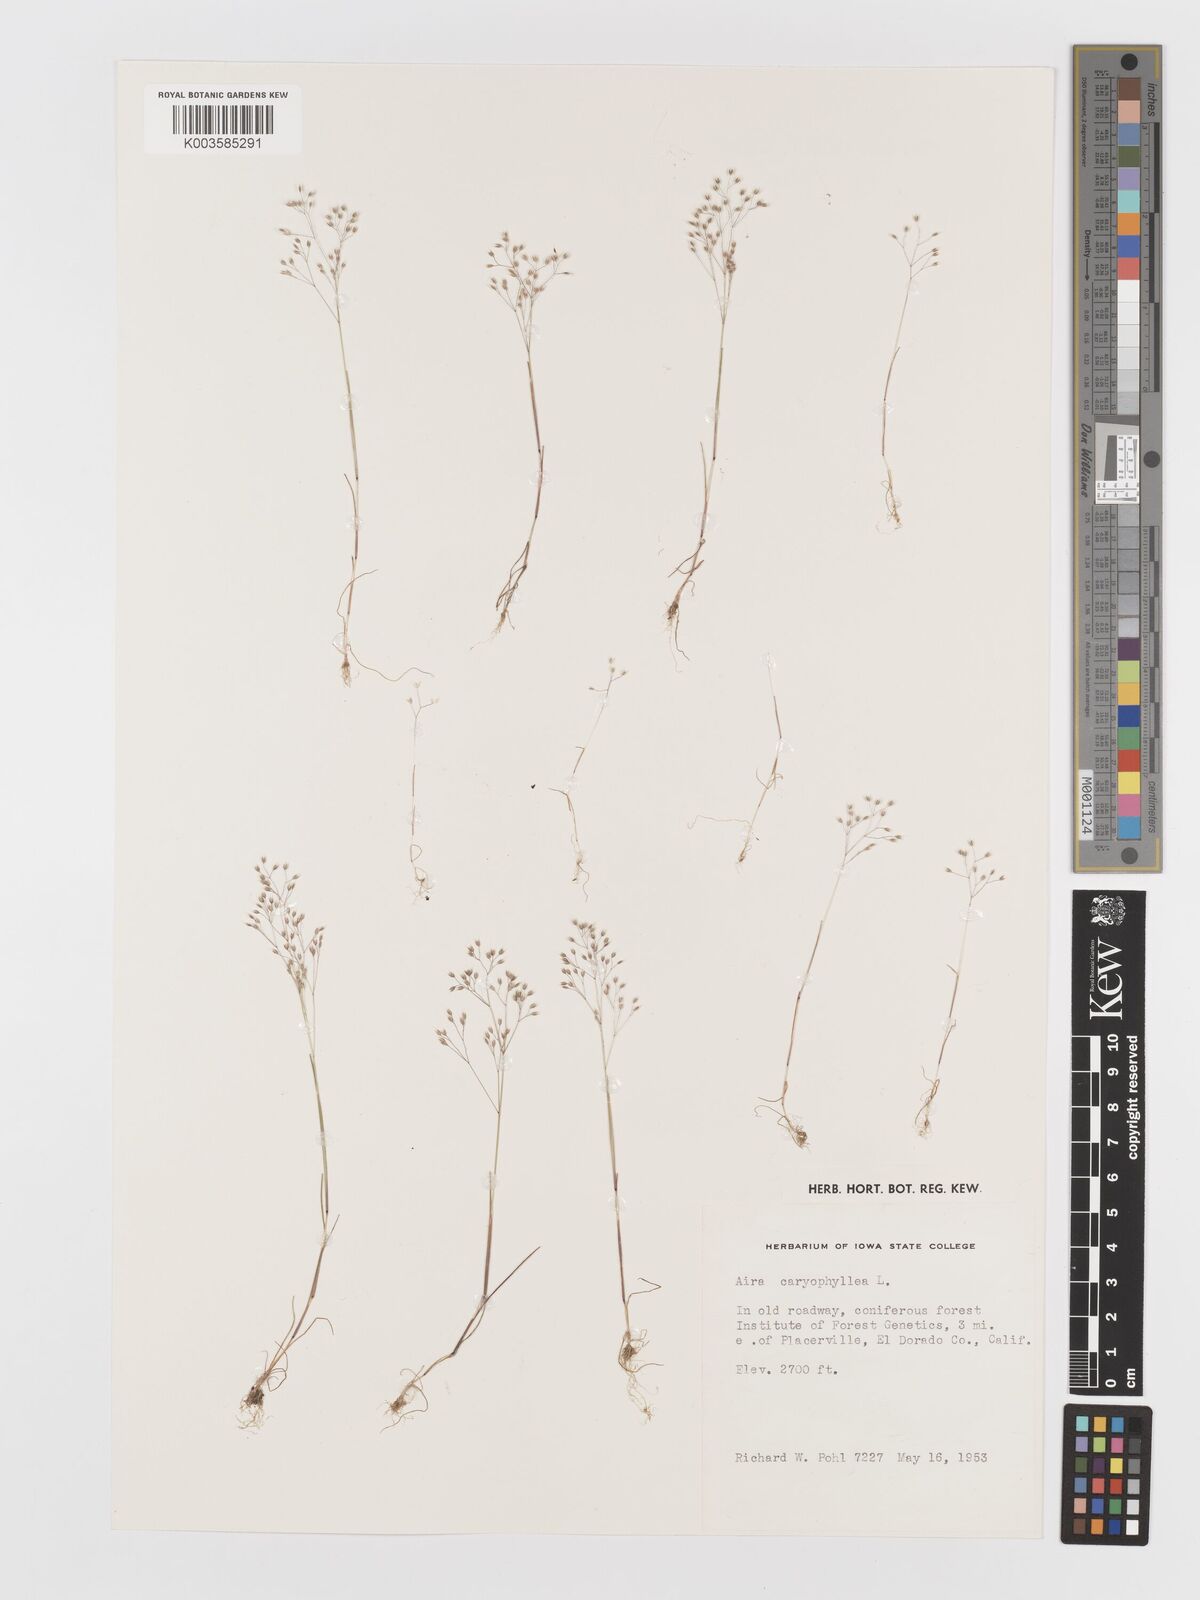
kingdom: Plantae
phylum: Tracheophyta
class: Liliopsida
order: Poales
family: Poaceae
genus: Aira
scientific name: Aira caryophyllea
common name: Silver hairgrass
